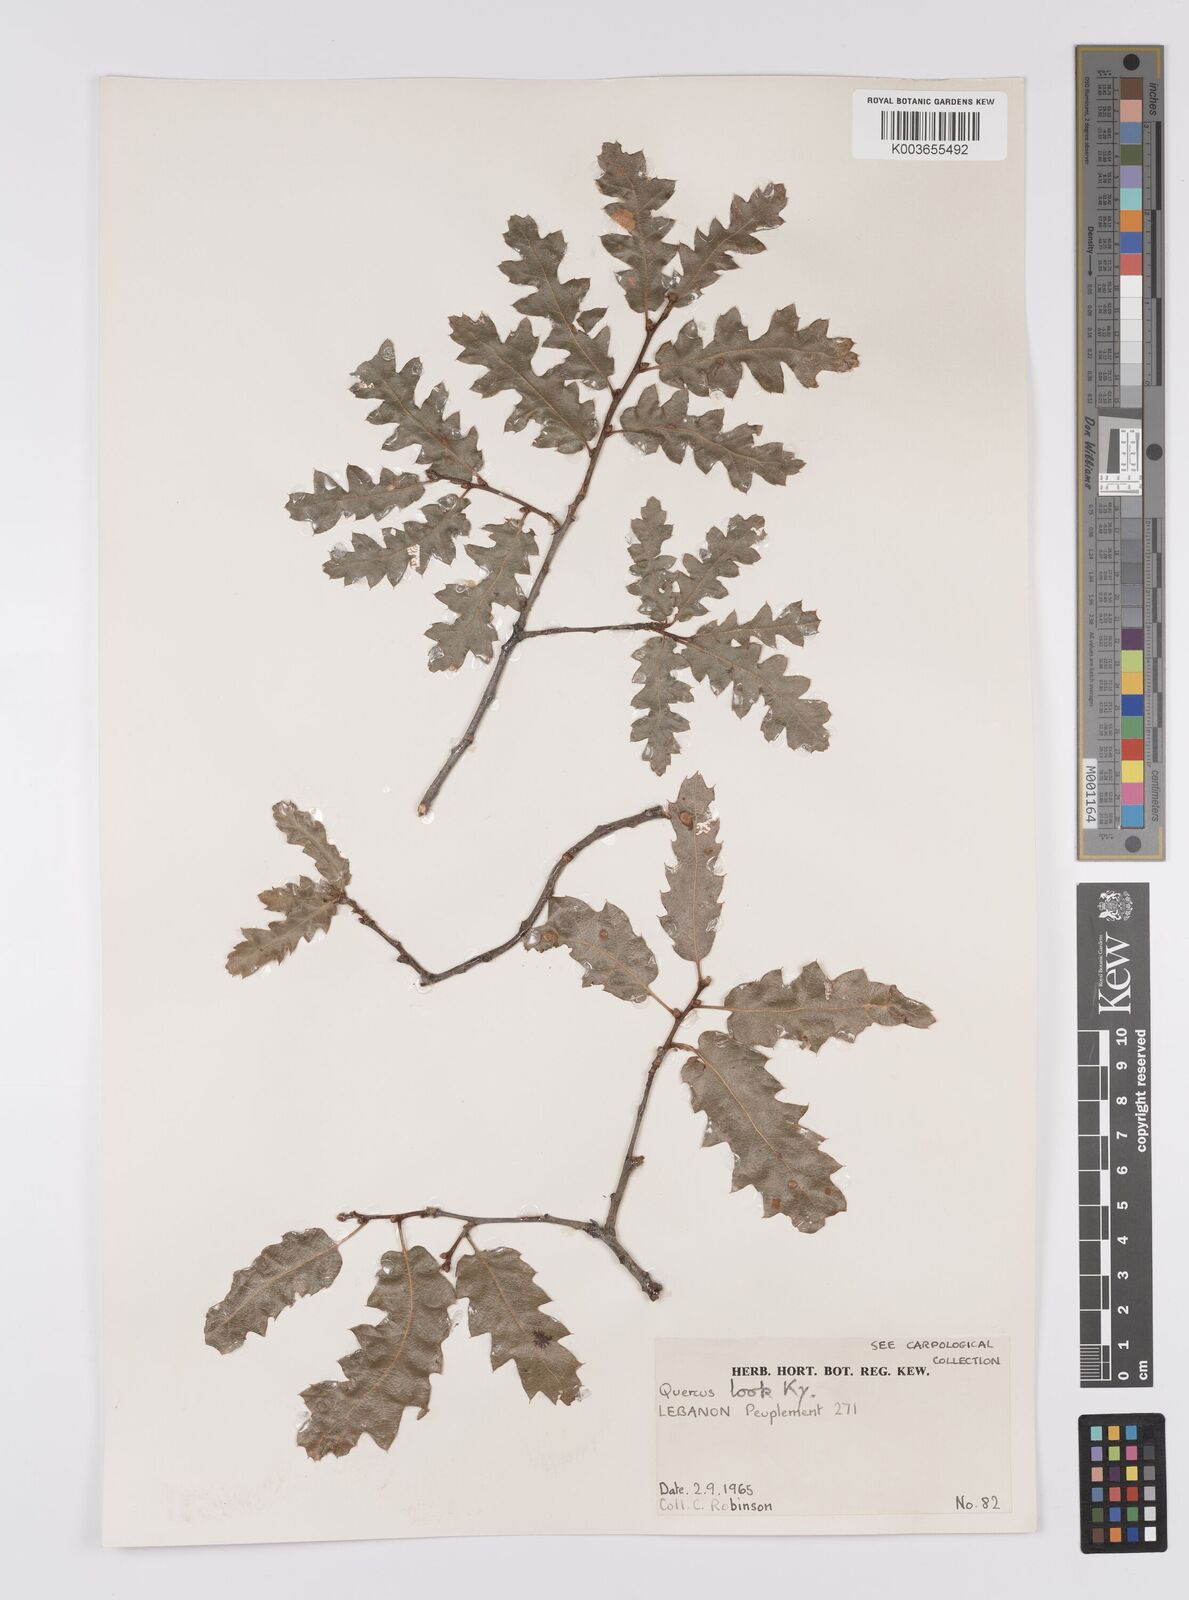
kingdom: Plantae
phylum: Tracheophyta
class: Magnoliopsida
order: Fagales
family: Fagaceae
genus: Quercus
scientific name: Quercus look
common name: Look oak
